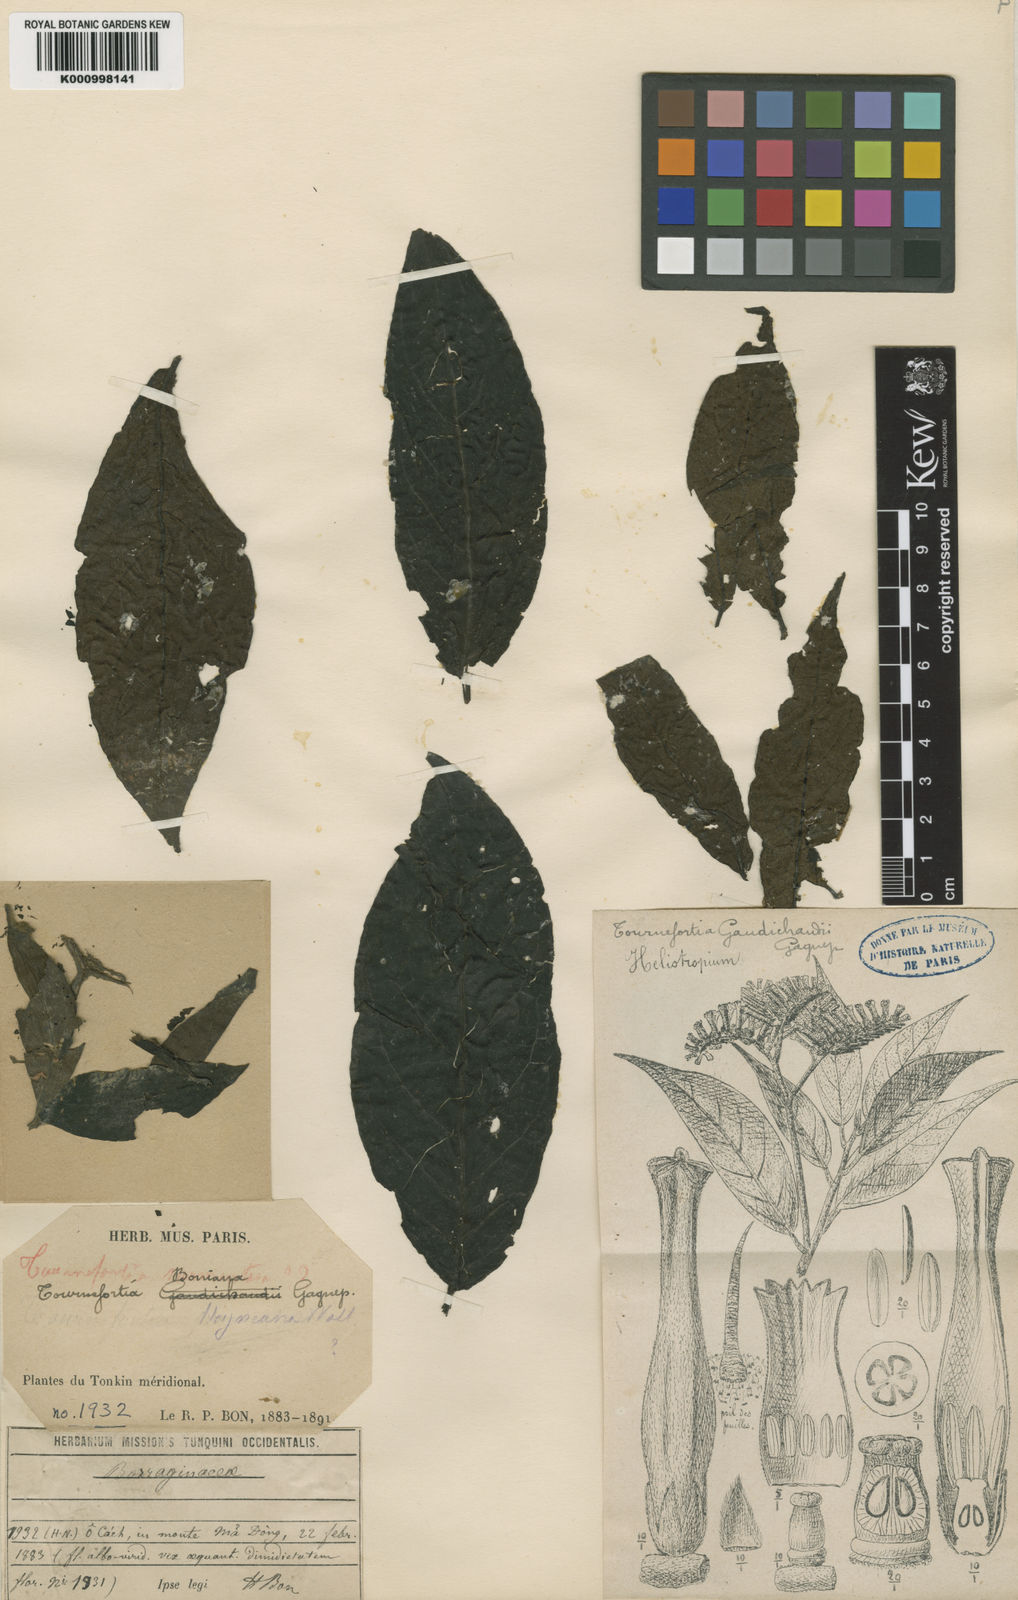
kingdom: Plantae
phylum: Tracheophyta
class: Magnoliopsida
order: Boraginales
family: Heliotropiaceae
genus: Tournefortia
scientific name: Tournefortia montana
